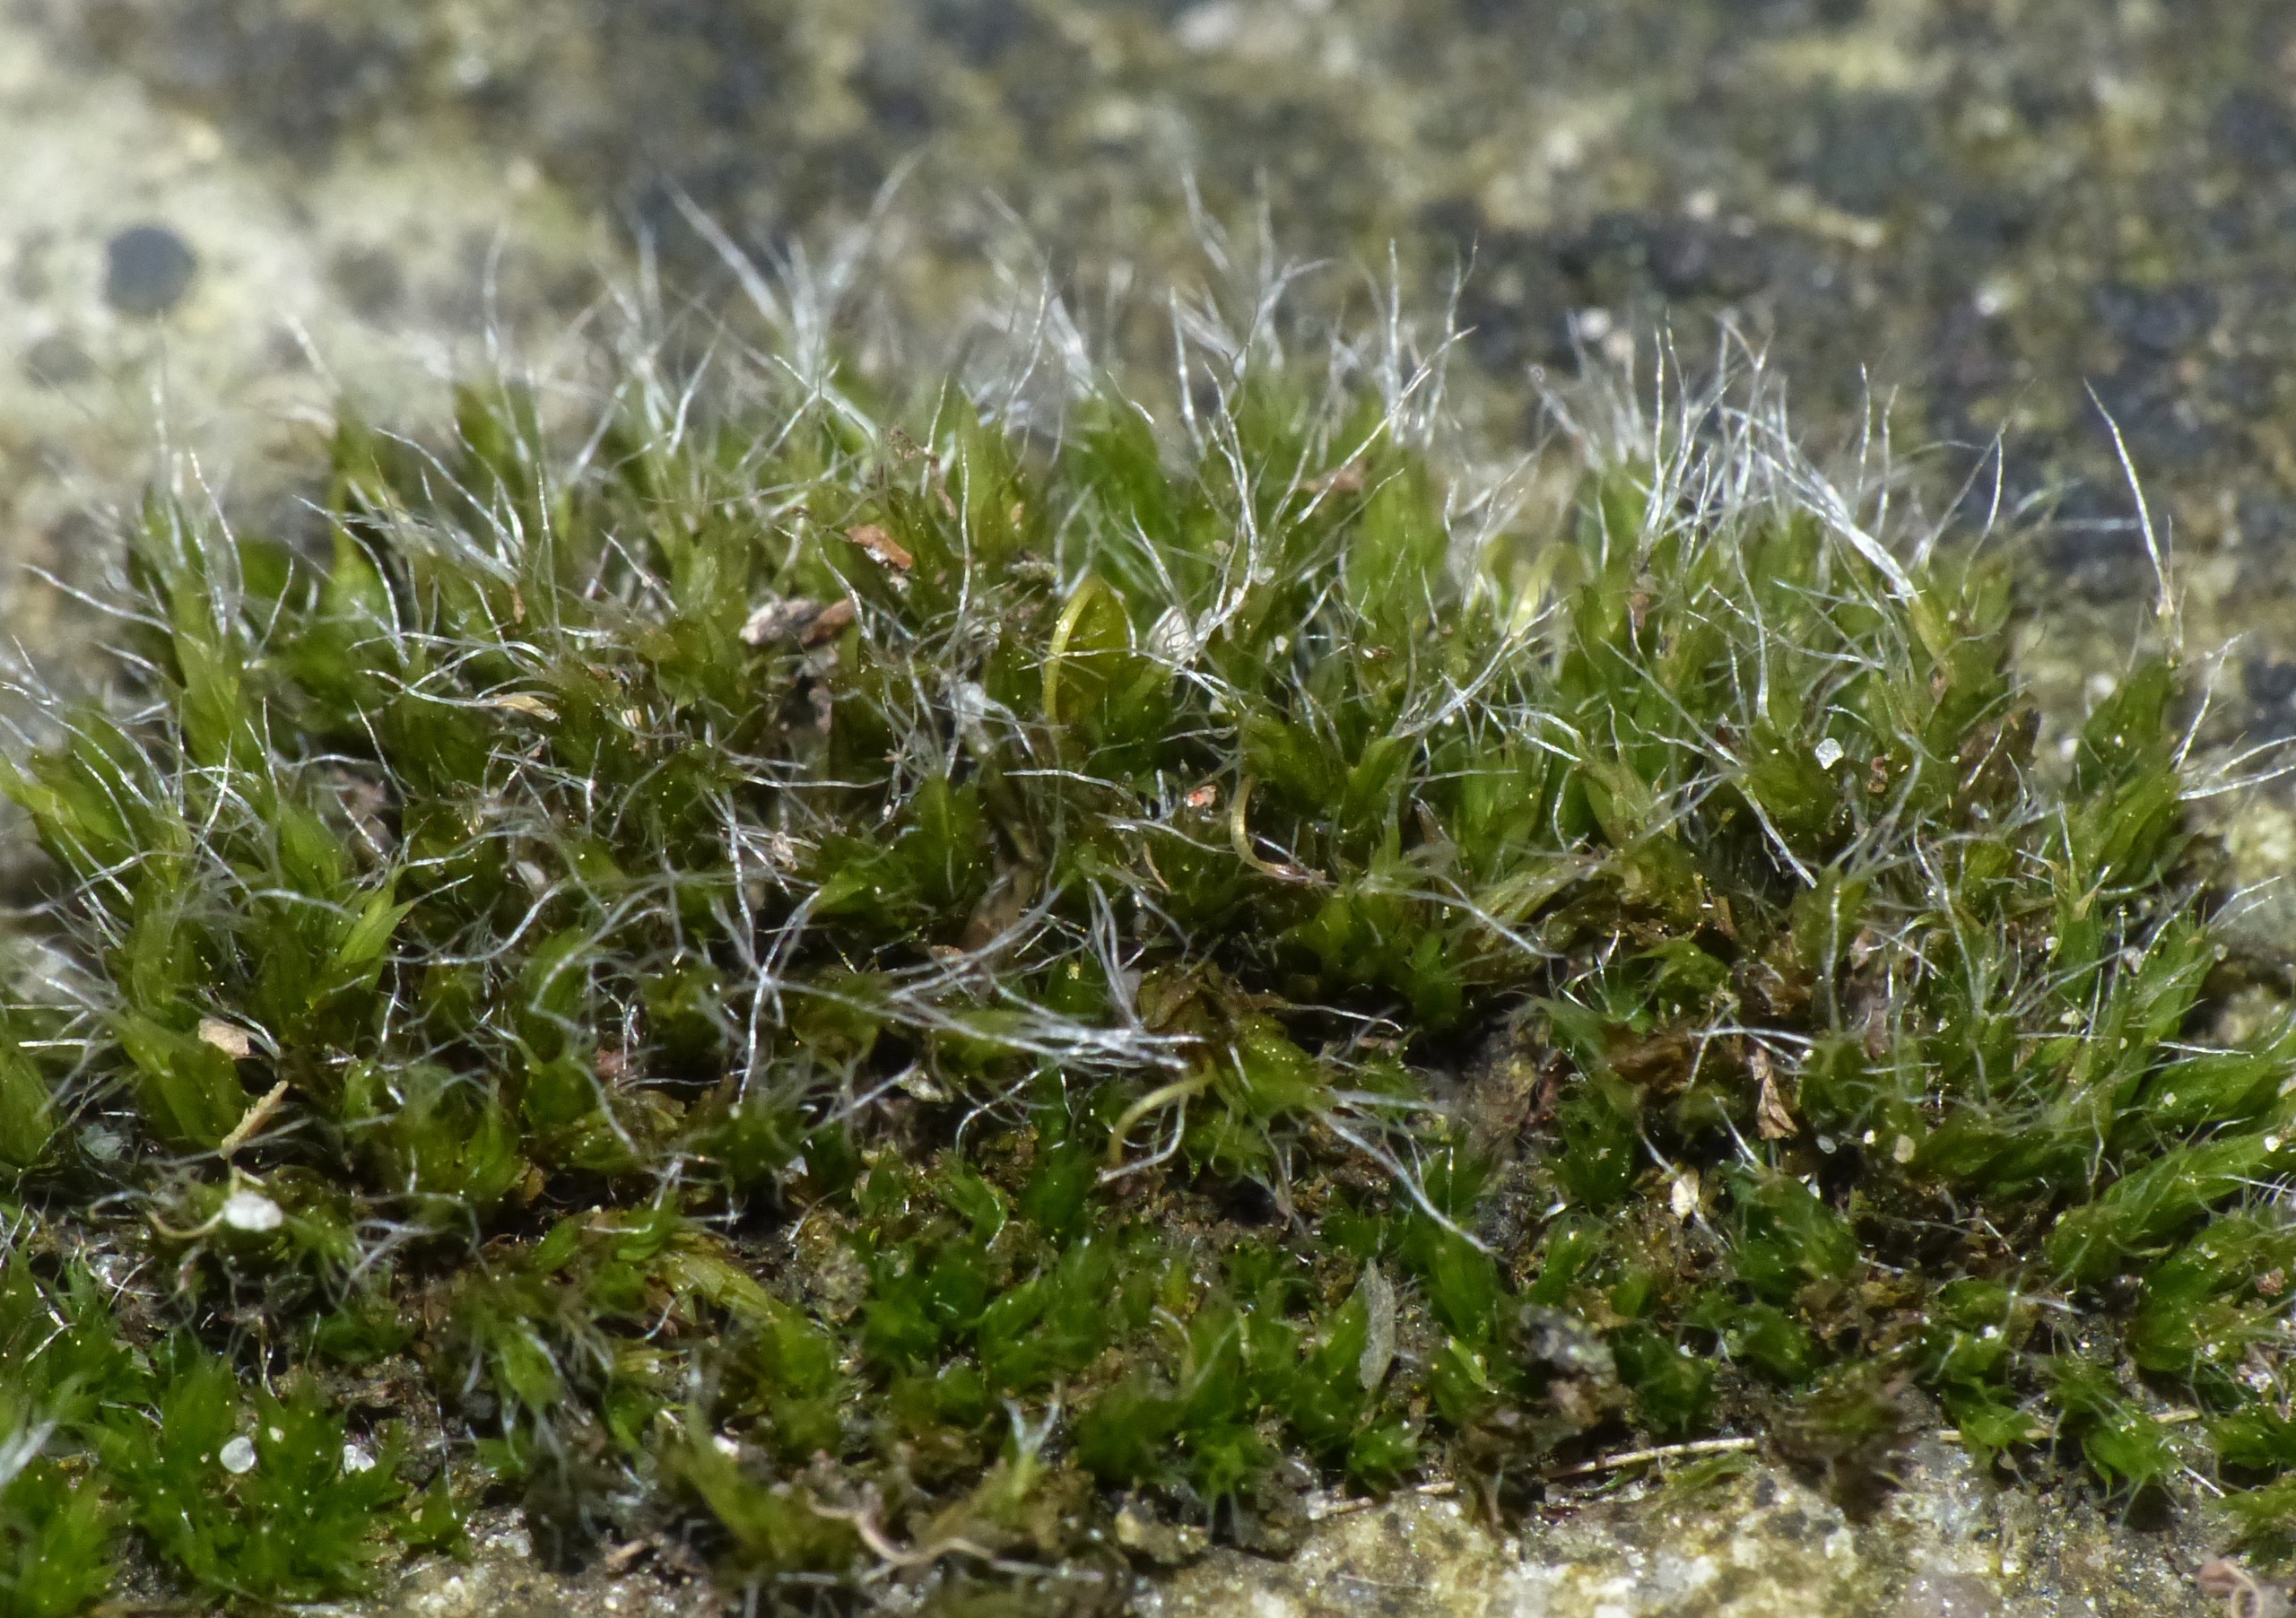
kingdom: Plantae
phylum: Bryophyta
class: Bryopsida
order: Grimmiales
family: Grimmiaceae
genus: Grimmia
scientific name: Grimmia pulvinata
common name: Pude-gråmos
